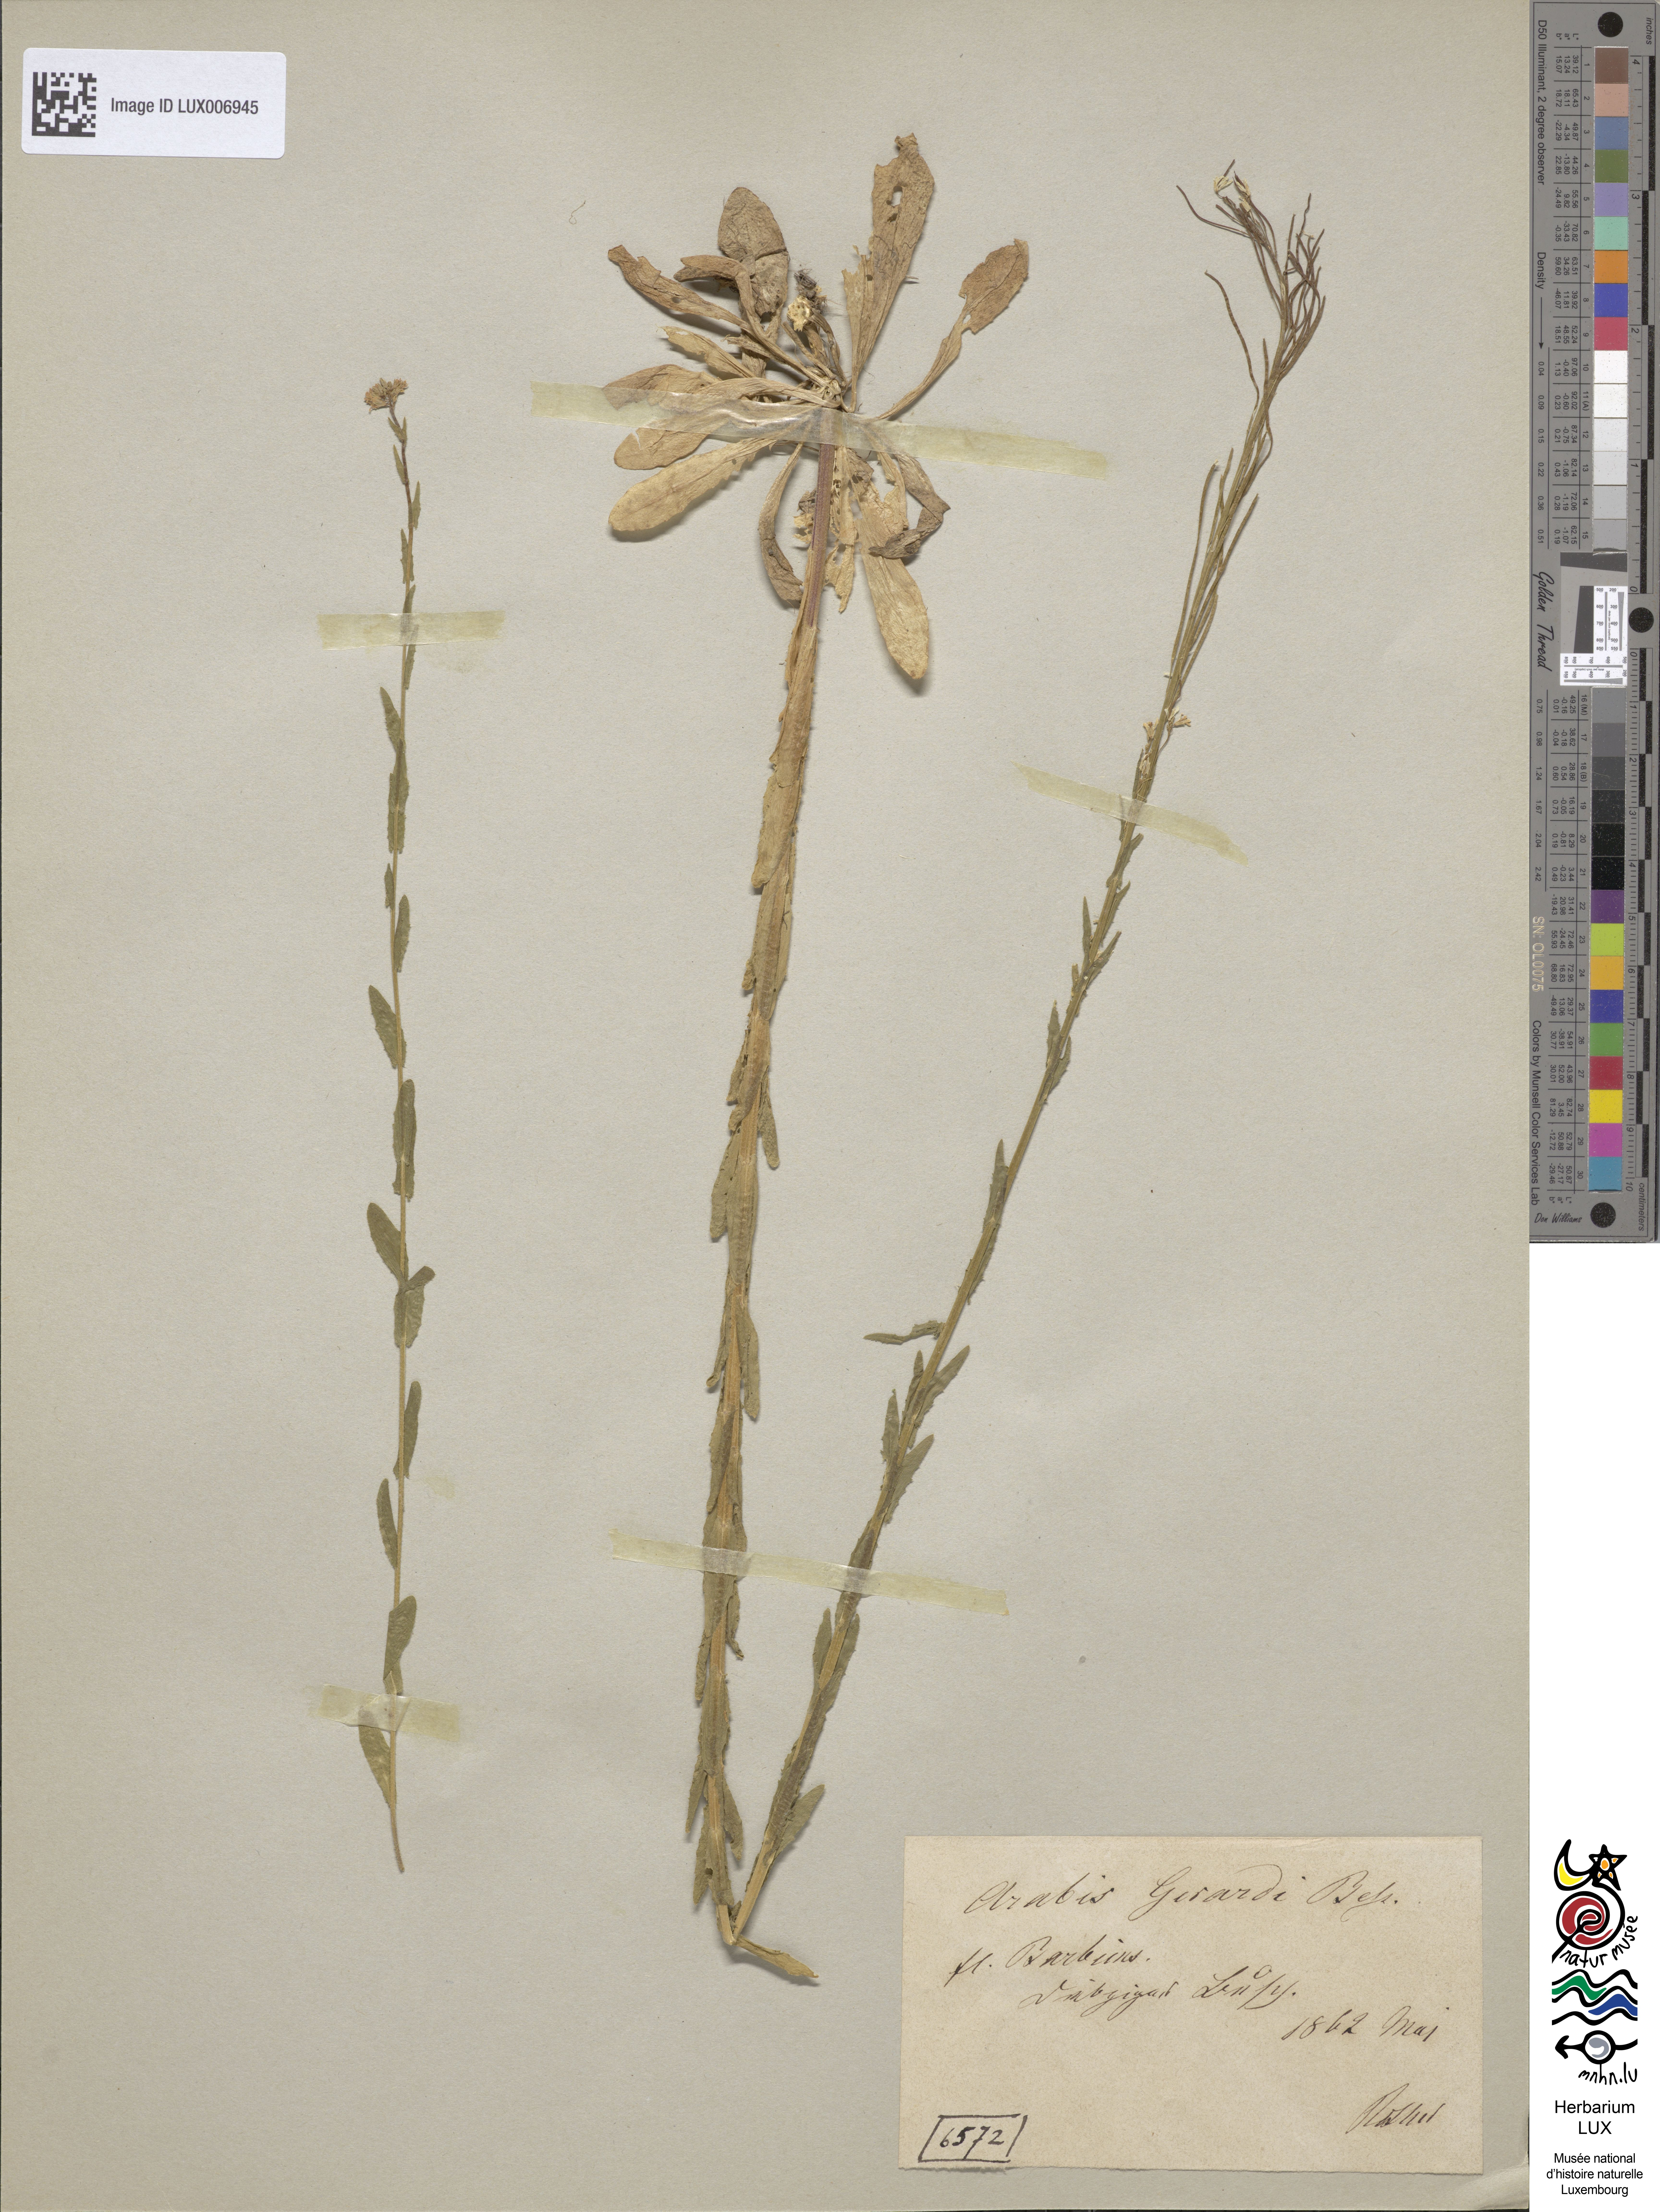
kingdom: Plantae
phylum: Tracheophyta
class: Magnoliopsida
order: Brassicales
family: Brassicaceae
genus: Arabis
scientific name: Arabis planisiliqua
